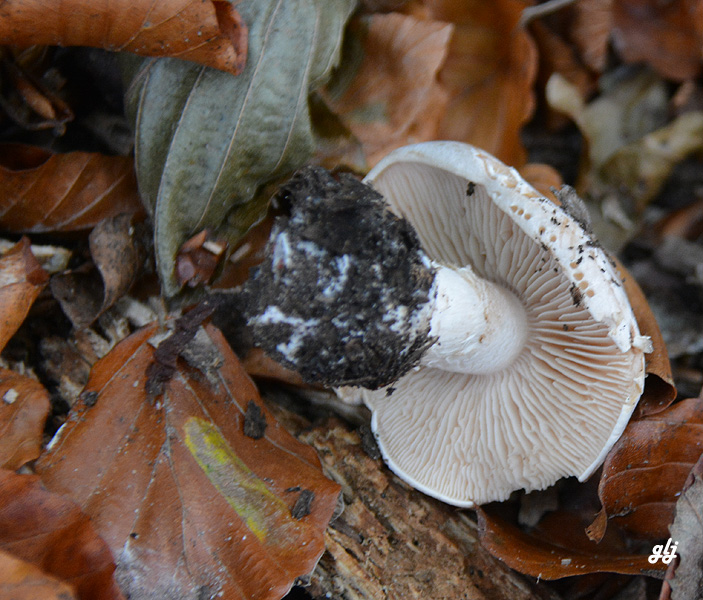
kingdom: Fungi
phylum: Basidiomycota
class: Agaricomycetes
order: Agaricales
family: Hymenogastraceae
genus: Hebeloma
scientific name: Hebeloma sinapizans
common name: ræddike-tåreblad
